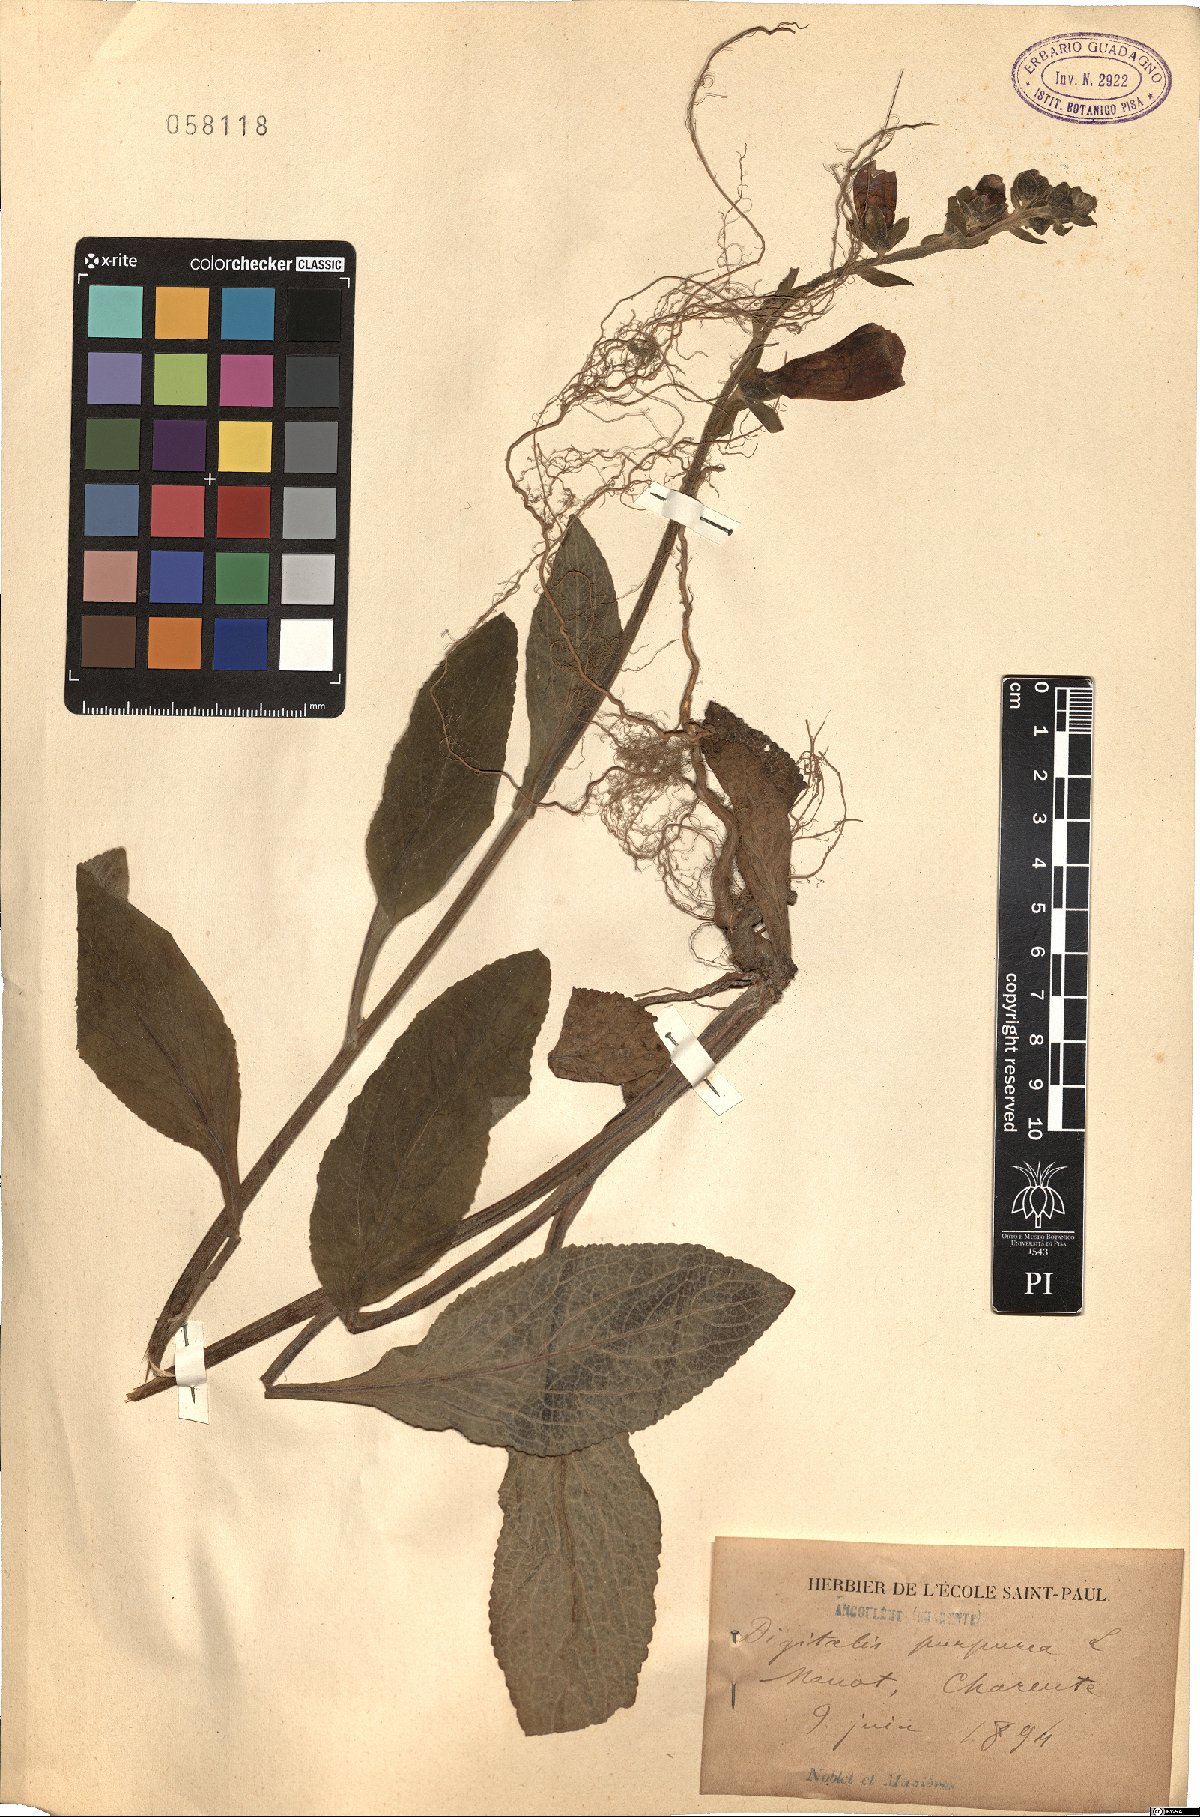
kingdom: Plantae
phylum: Tracheophyta
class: Magnoliopsida
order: Lamiales
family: Plantaginaceae
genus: Digitalis
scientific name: Digitalis purpurea
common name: Foxglove
